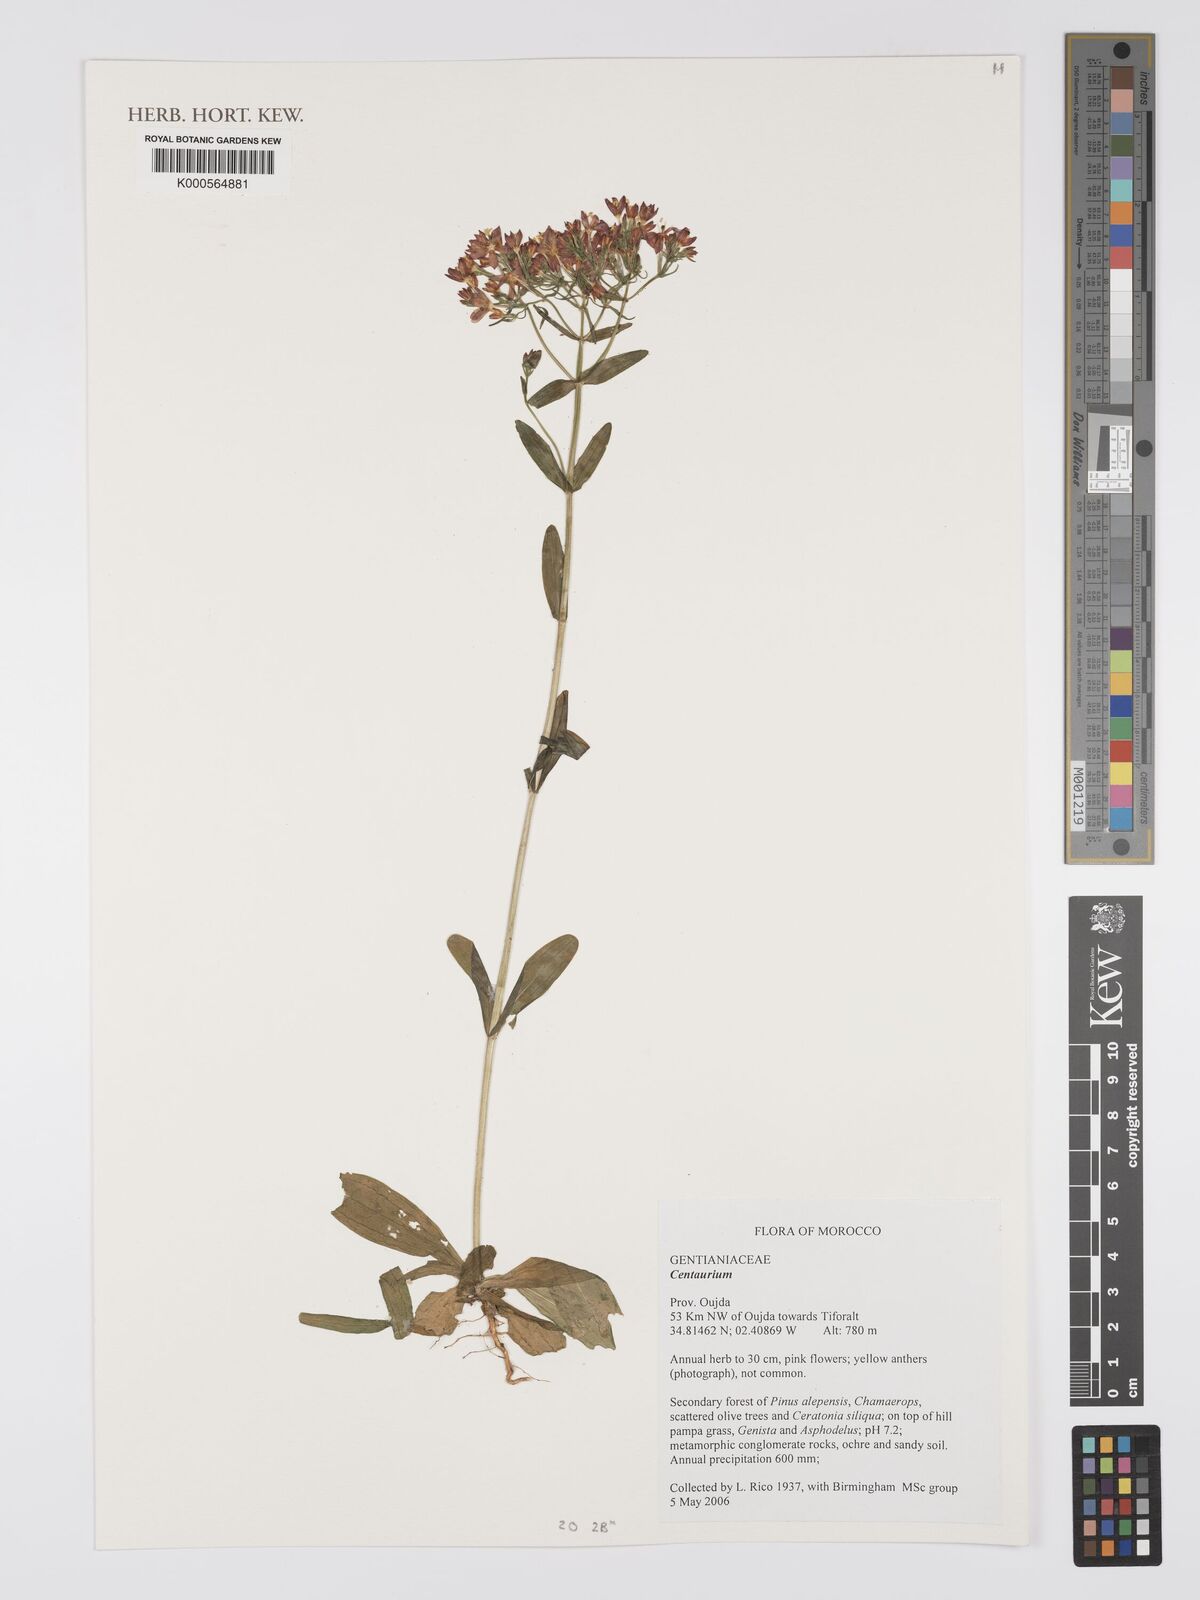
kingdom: Plantae
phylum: Tracheophyta
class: Magnoliopsida
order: Gentianales
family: Gentianaceae
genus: Centaurium
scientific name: Centaurium
